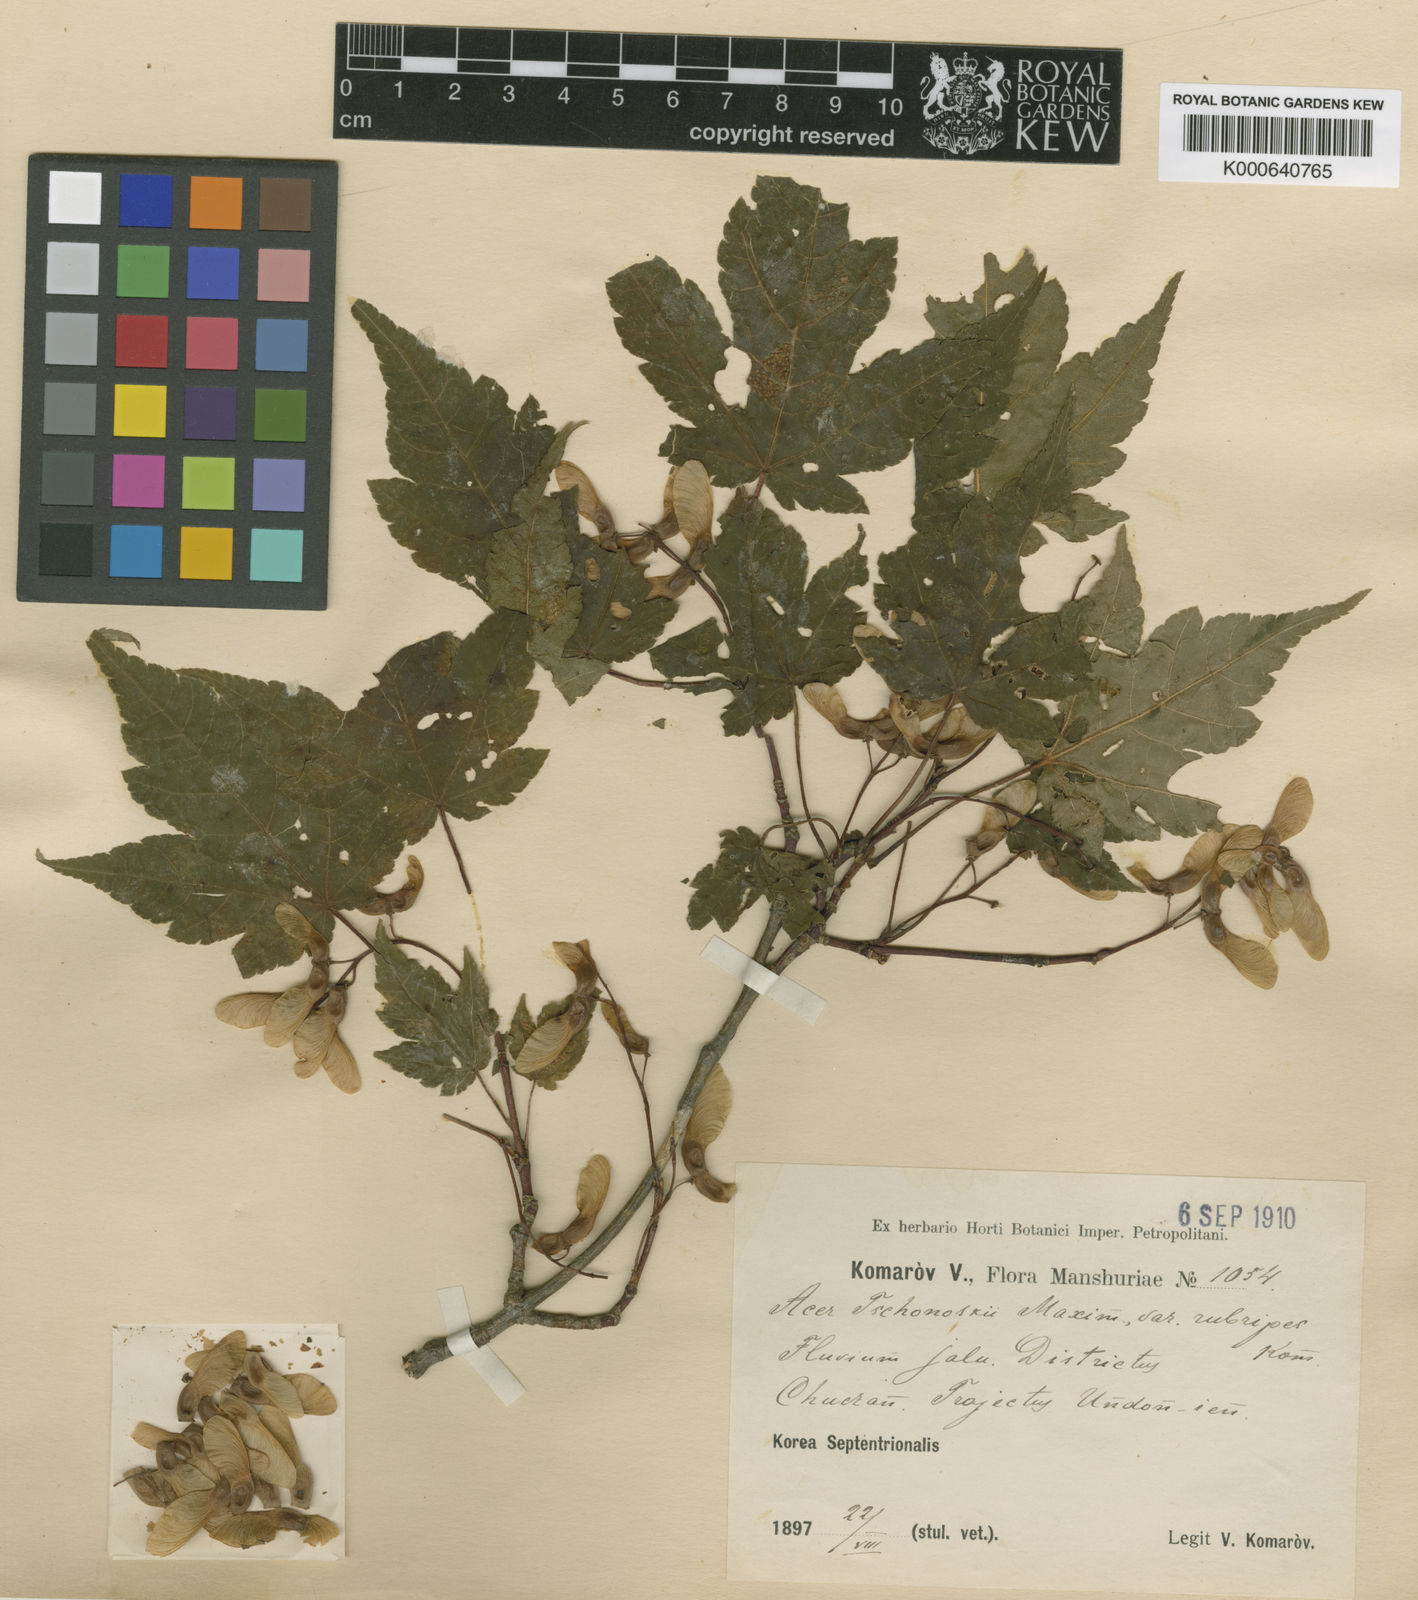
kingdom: Plantae
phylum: Tracheophyta
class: Magnoliopsida
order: Sapindales
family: Sapindaceae
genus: Acer
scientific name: Acer tschonoskii
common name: Tschonoski’s maple
